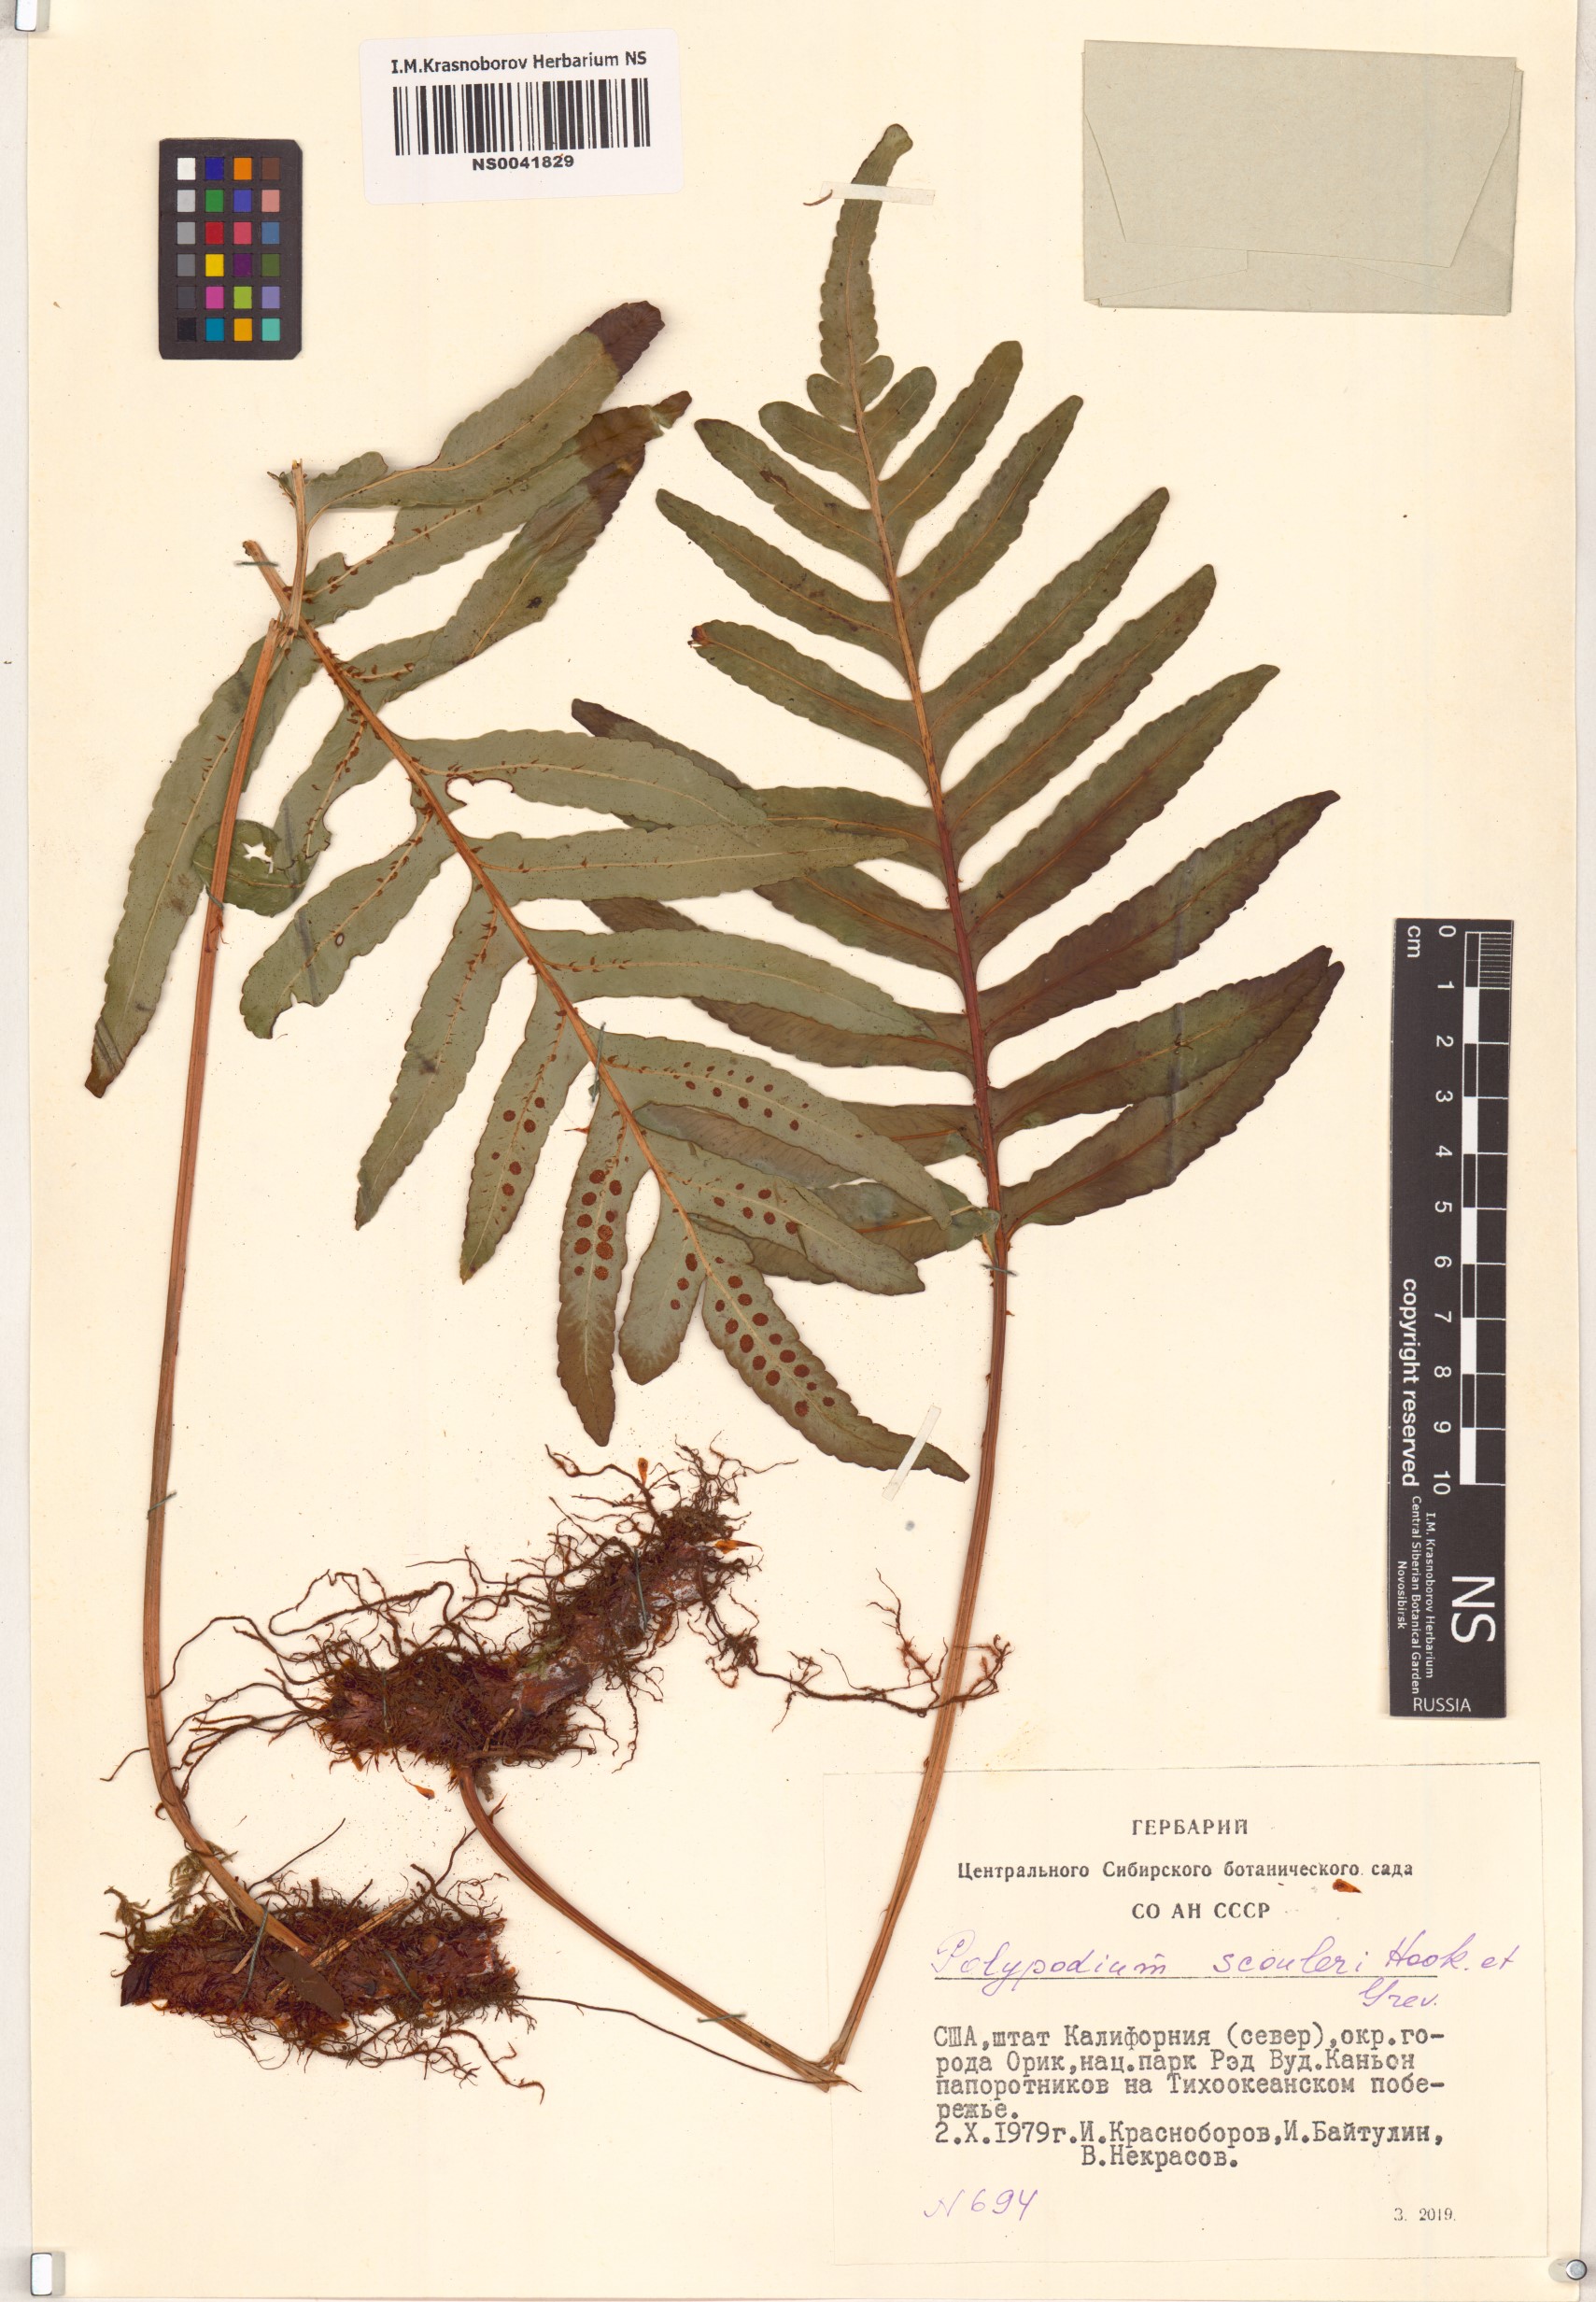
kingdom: Plantae
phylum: Tracheophyta
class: Polypodiopsida
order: Polypodiales
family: Polypodiaceae
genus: Polypodium
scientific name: Polypodium scouleri
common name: Scouler's polypody
